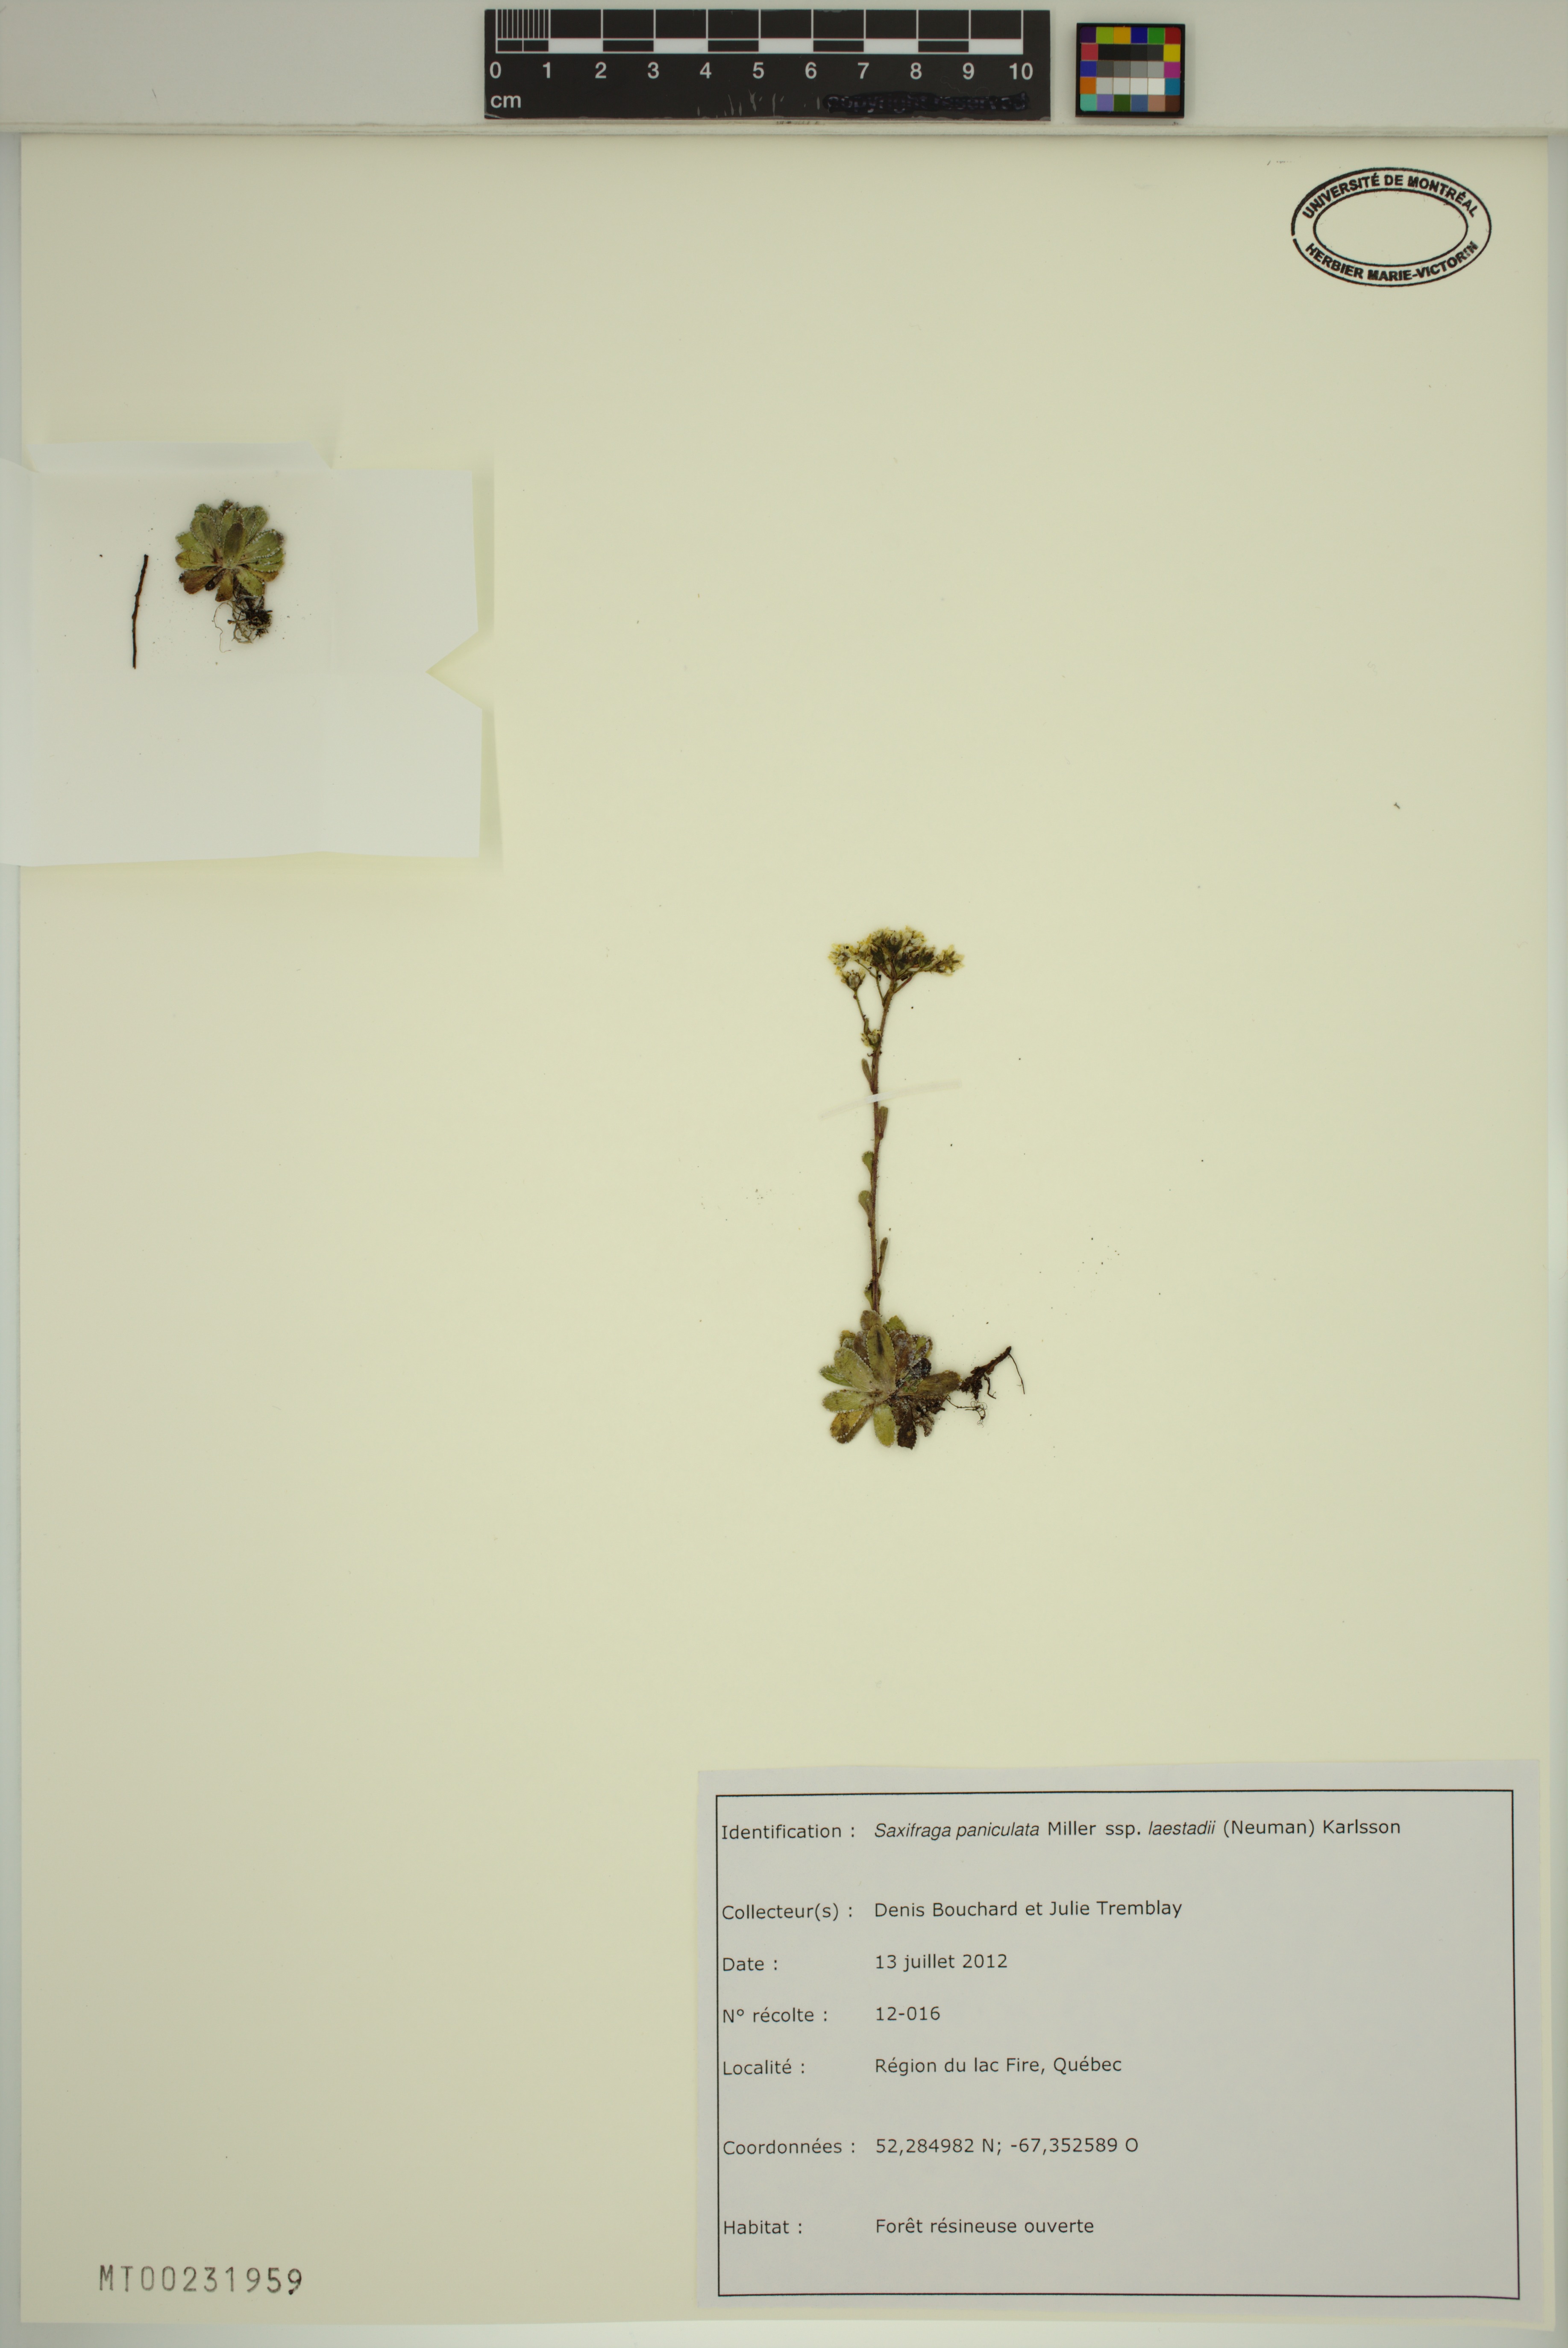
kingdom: Plantae
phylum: Tracheophyta
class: Magnoliopsida
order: Saxifragales
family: Saxifragaceae
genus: Saxifraga
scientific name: Saxifraga paniculata
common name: Livelong saxifrage
